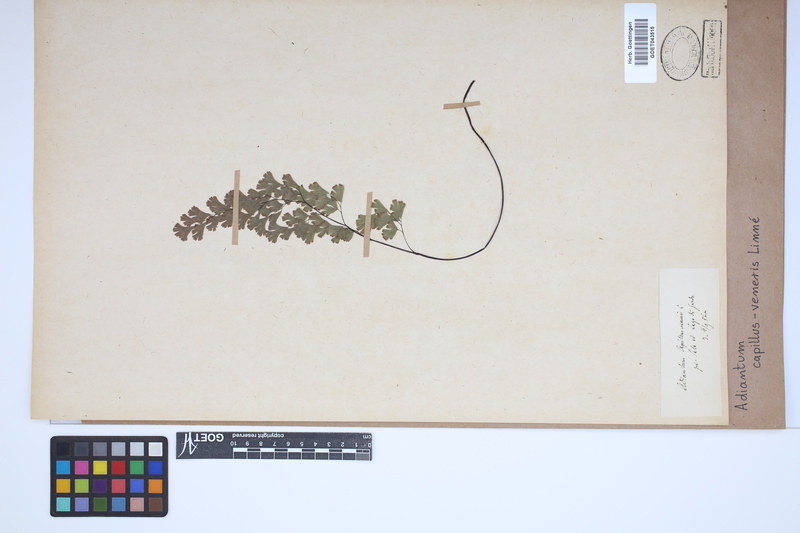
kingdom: Plantae
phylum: Tracheophyta
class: Polypodiopsida
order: Polypodiales
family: Pteridaceae
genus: Adiantum
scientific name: Adiantum capillus-veneris
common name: Maidenhair fern
